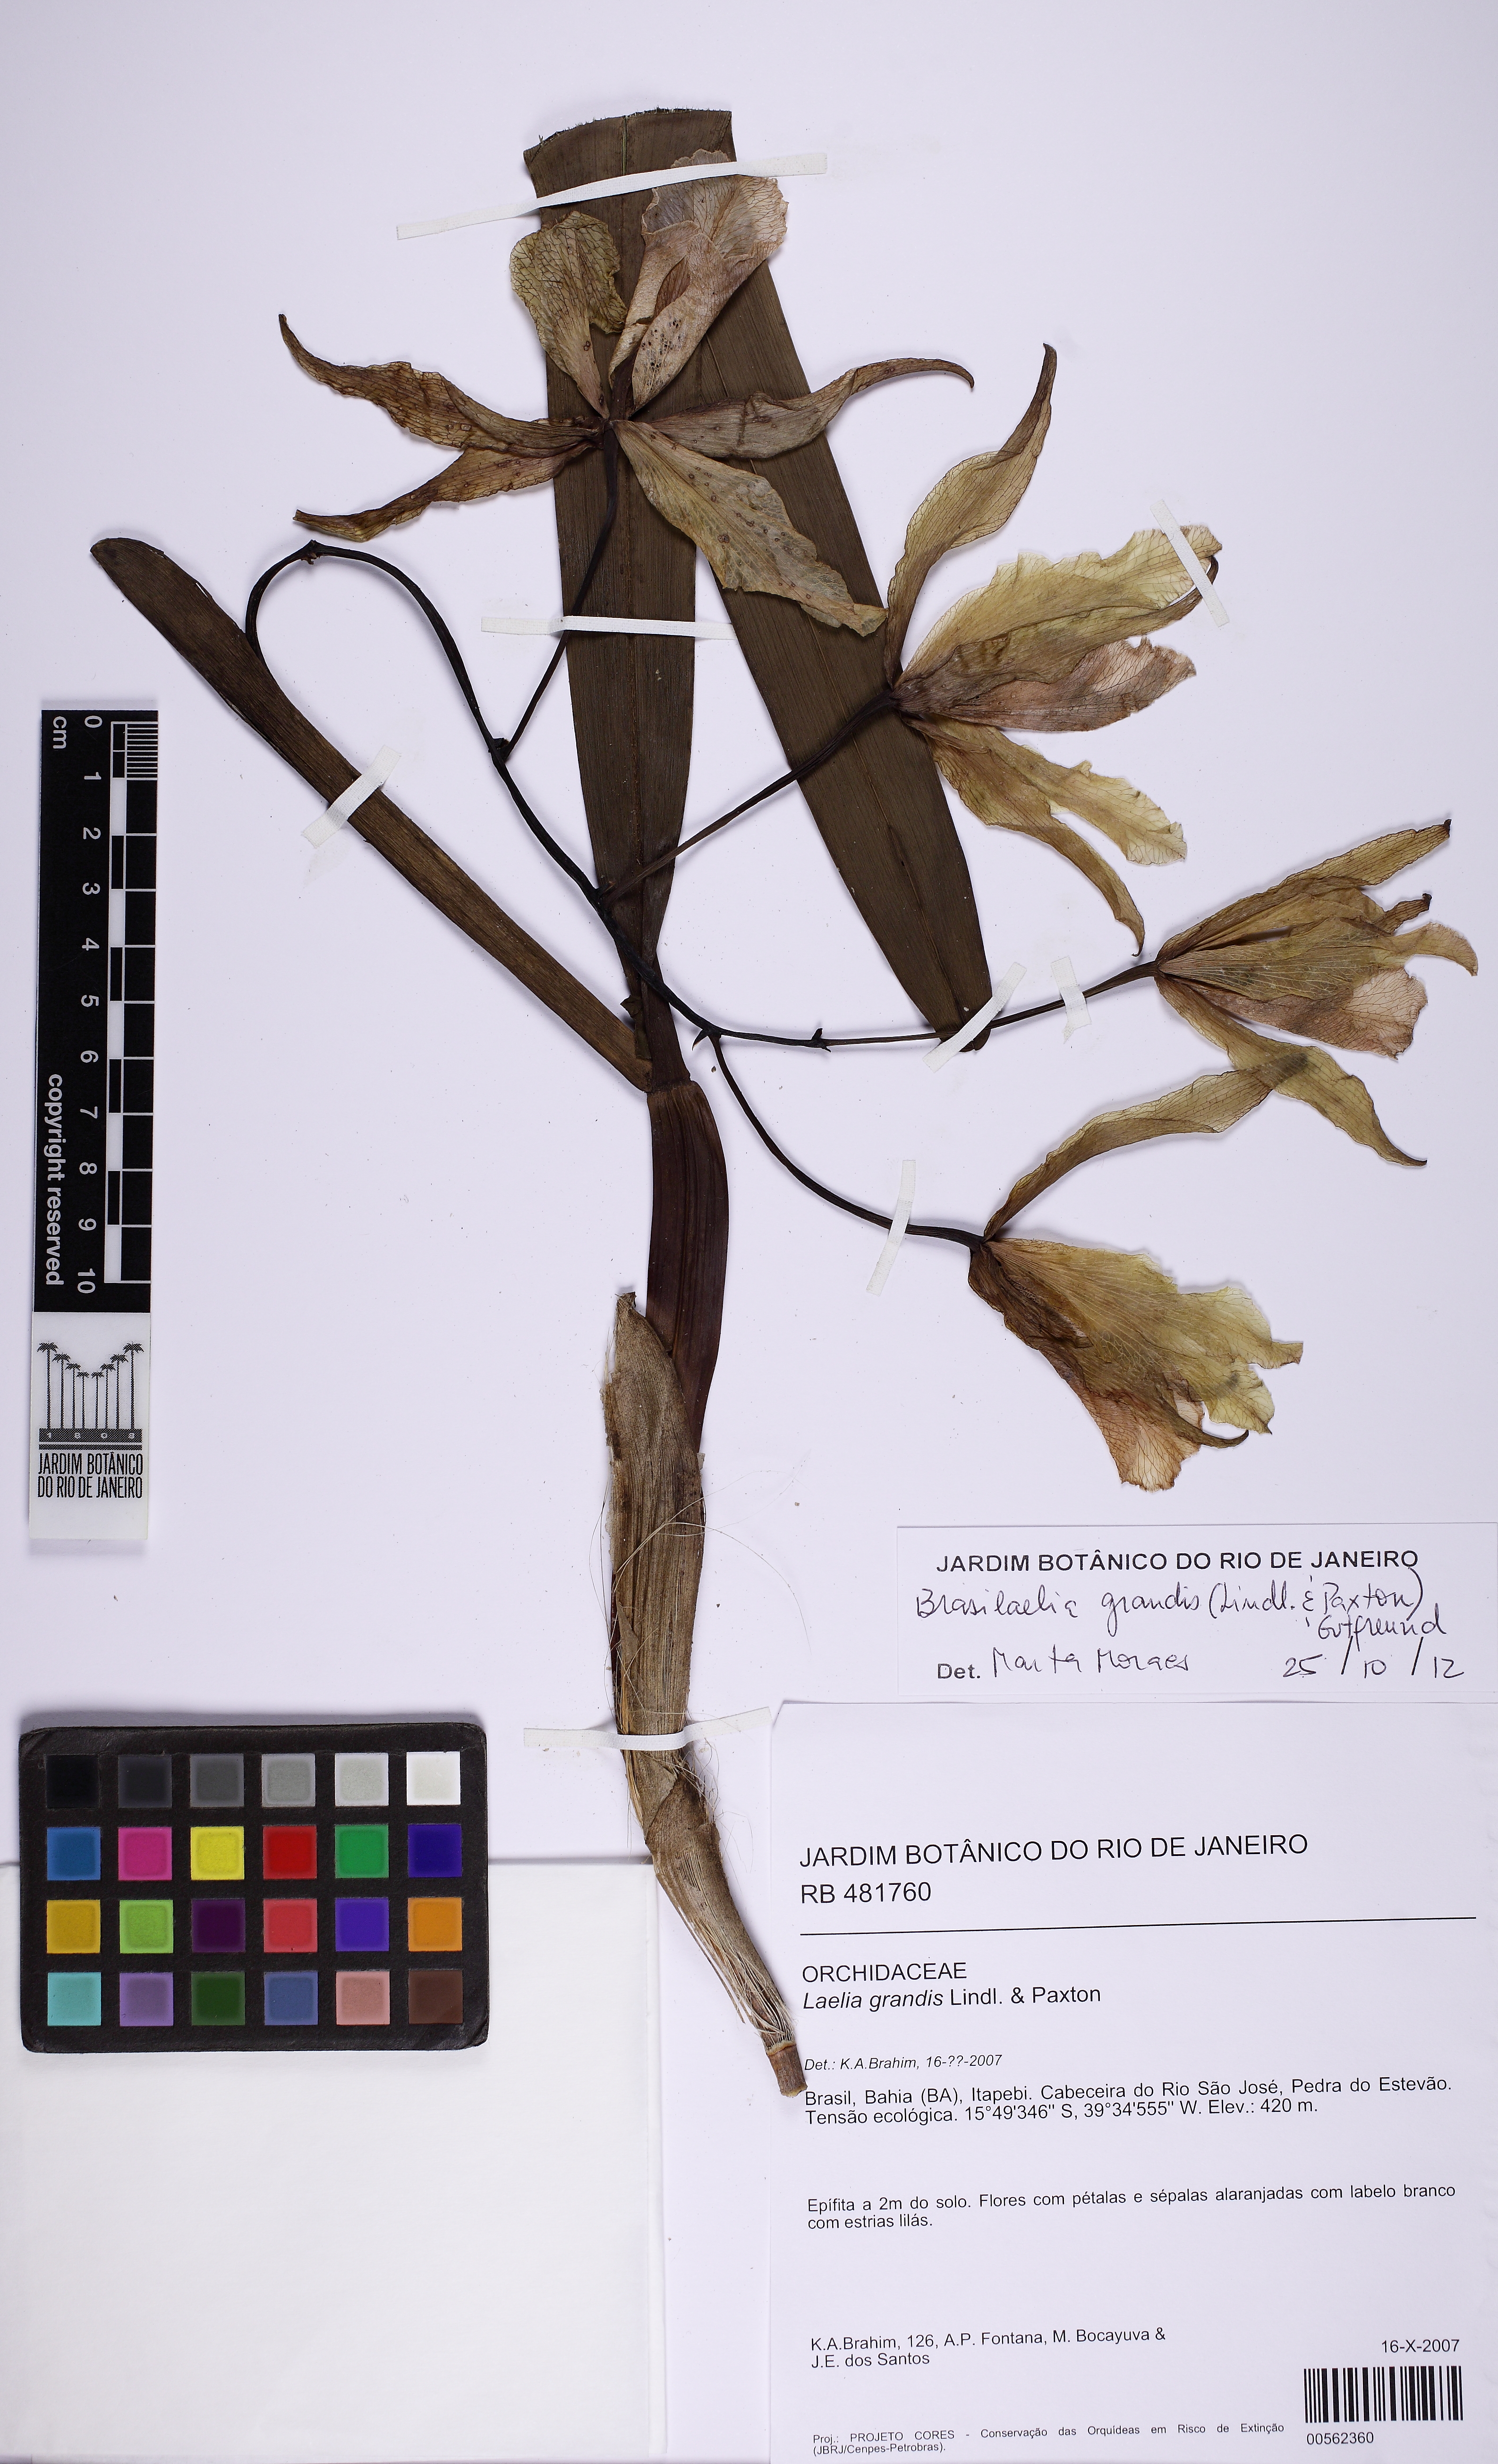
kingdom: Plantae
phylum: Tracheophyta
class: Liliopsida
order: Asparagales
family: Orchidaceae
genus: Cattleya
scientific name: Cattleya grandis
